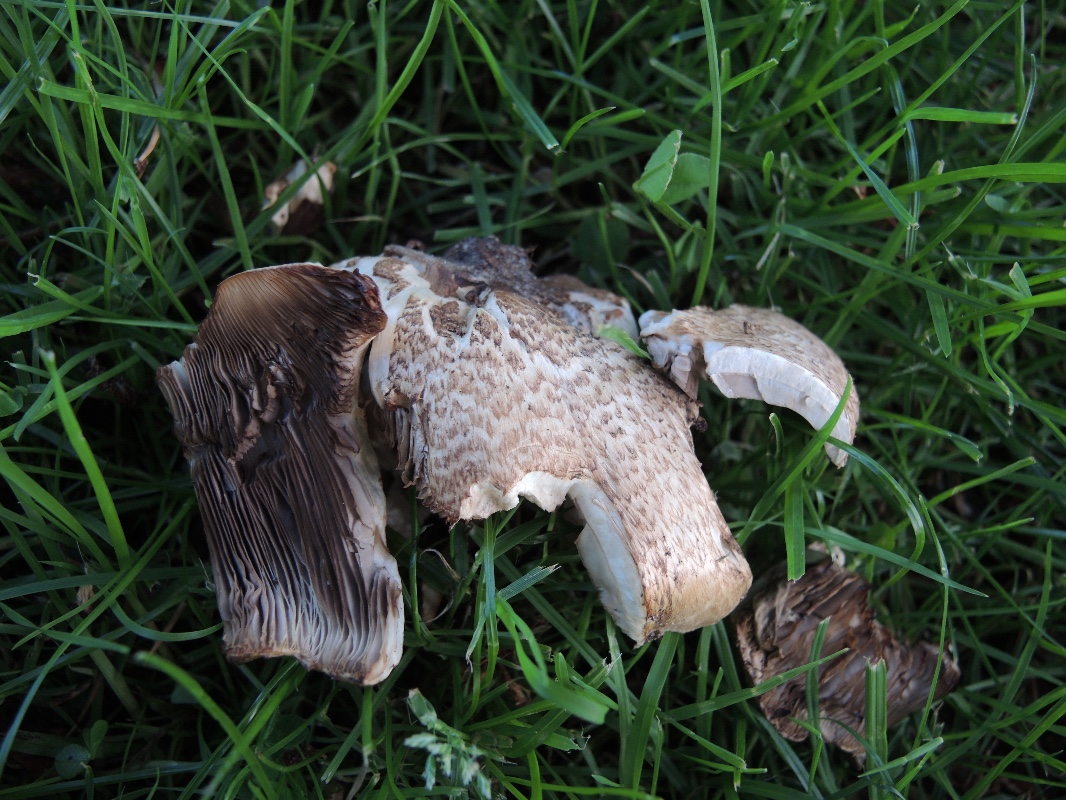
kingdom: Fungi
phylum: Basidiomycota
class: Agaricomycetes
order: Agaricales
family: Agaricaceae
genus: Agaricus
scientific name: Agaricus augustus
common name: prægtig champignon
